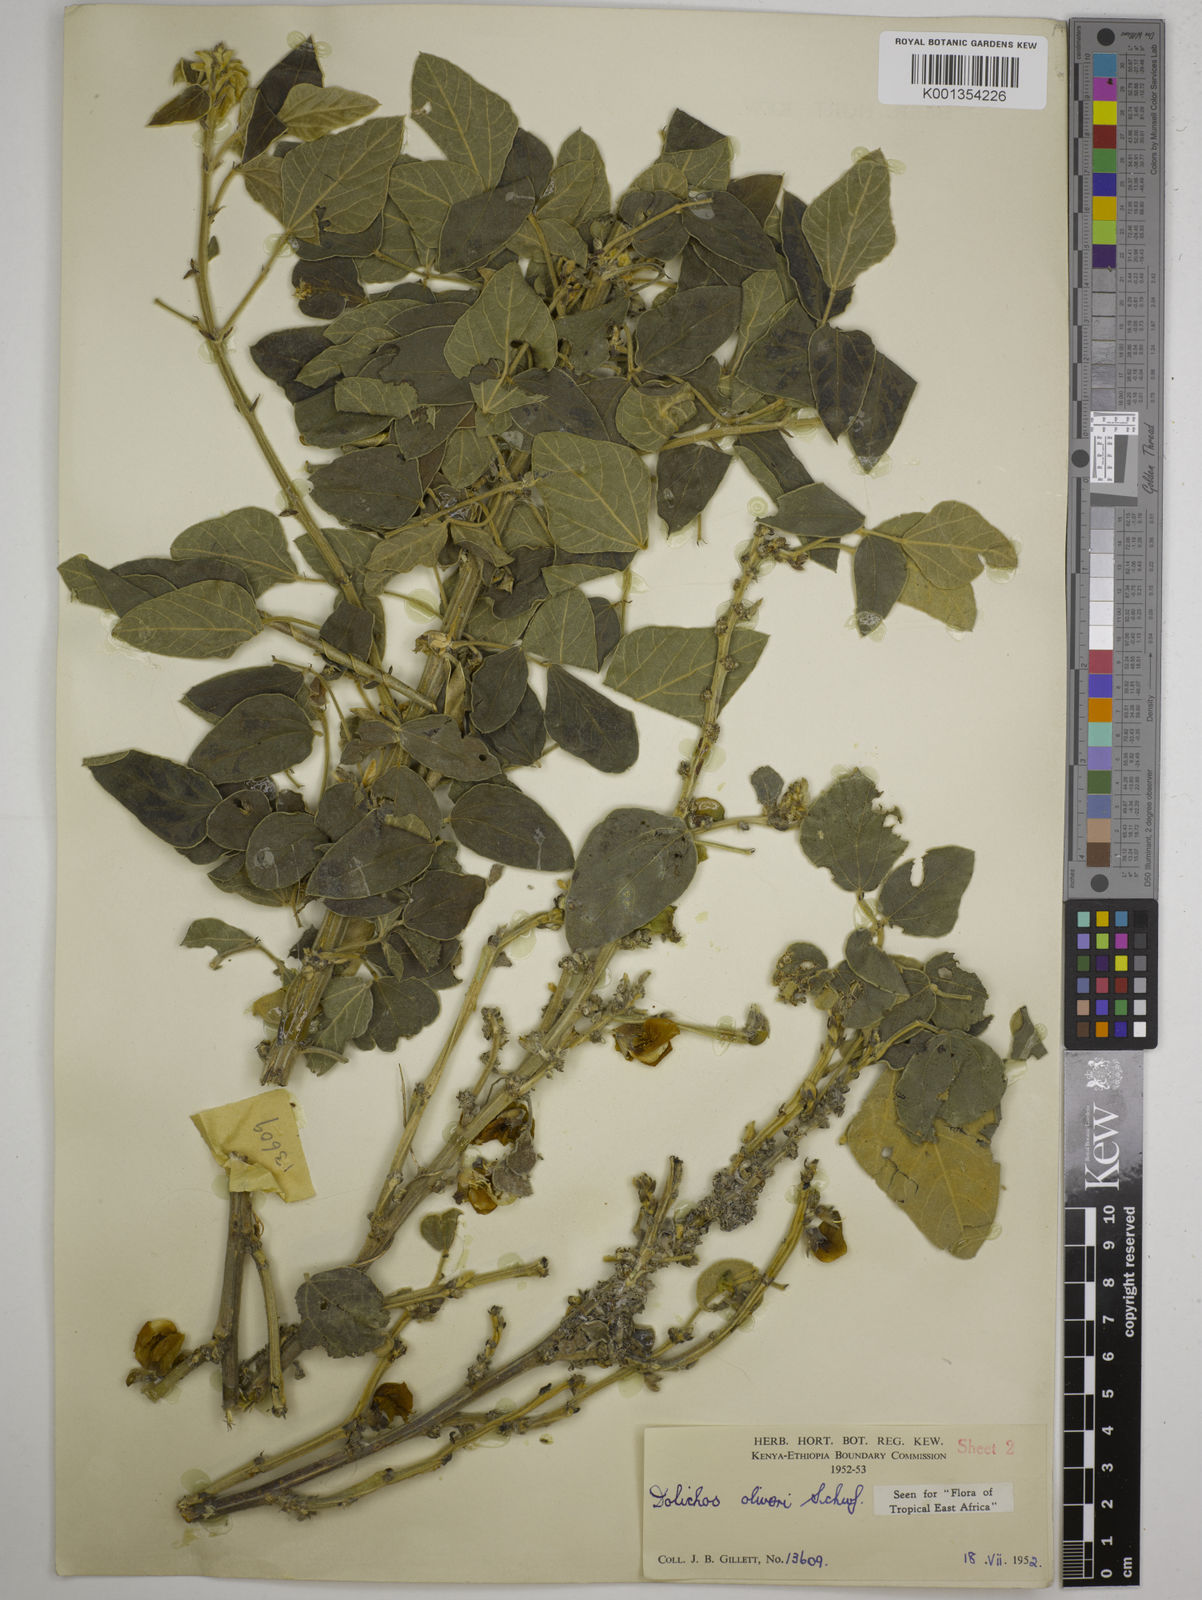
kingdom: Plantae
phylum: Tracheophyta
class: Magnoliopsida
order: Fabales
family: Fabaceae
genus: Dolichos
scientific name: Dolichos oliveri
